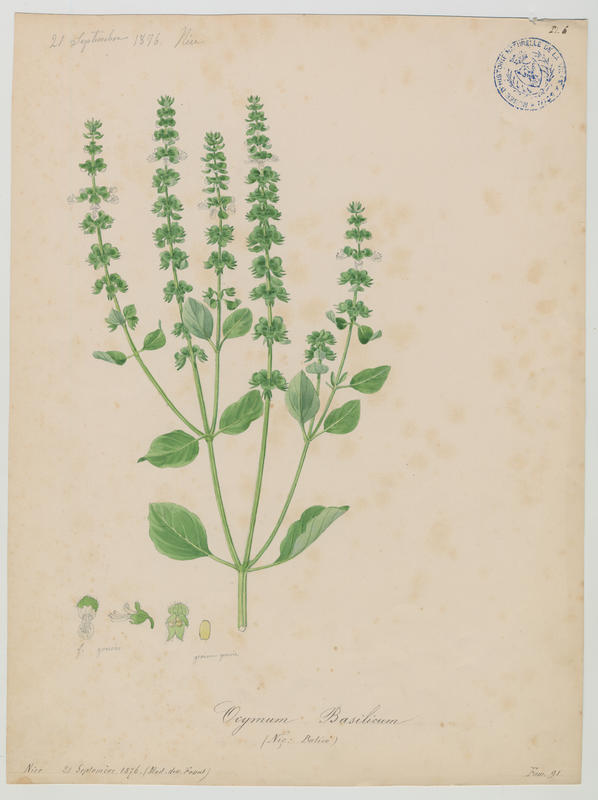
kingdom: Plantae
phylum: Tracheophyta
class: Magnoliopsida
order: Lamiales
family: Lamiaceae
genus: Ocimum
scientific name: Ocimum basilicum
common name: Sweet basil
